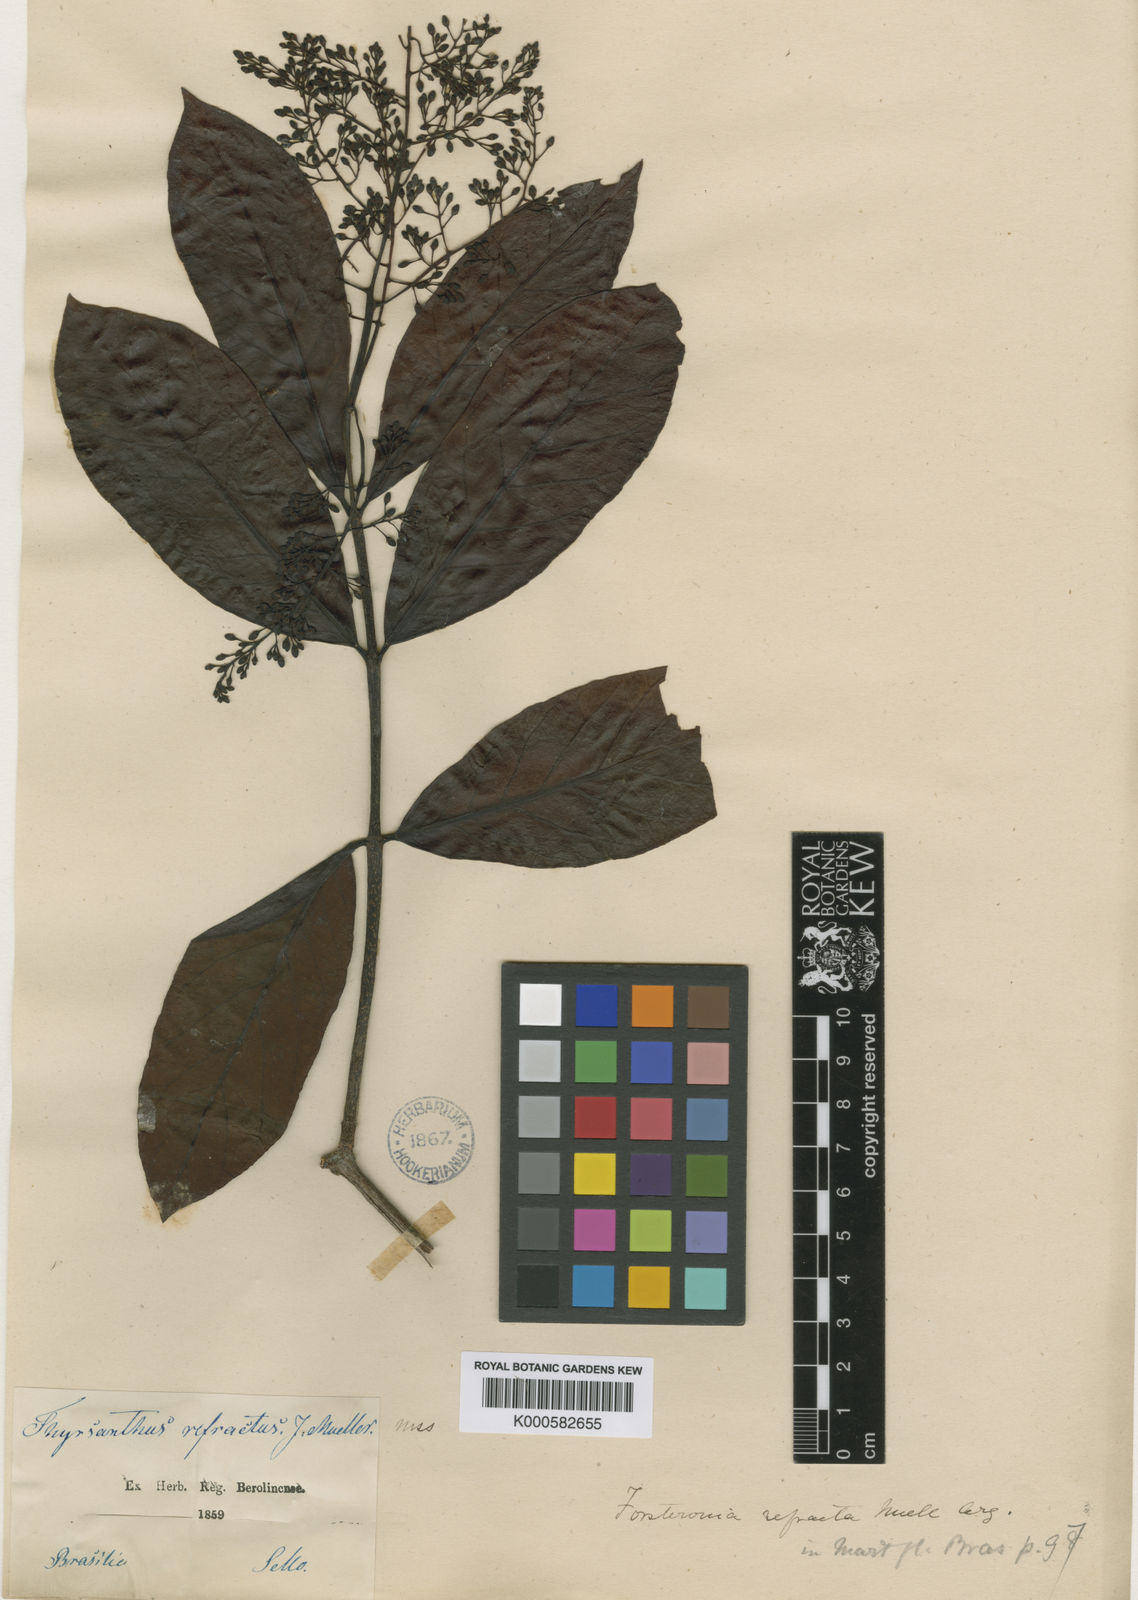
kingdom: Plantae
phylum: Tracheophyta
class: Magnoliopsida
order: Gentianales
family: Apocynaceae
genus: Forsteronia
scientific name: Forsteronia
